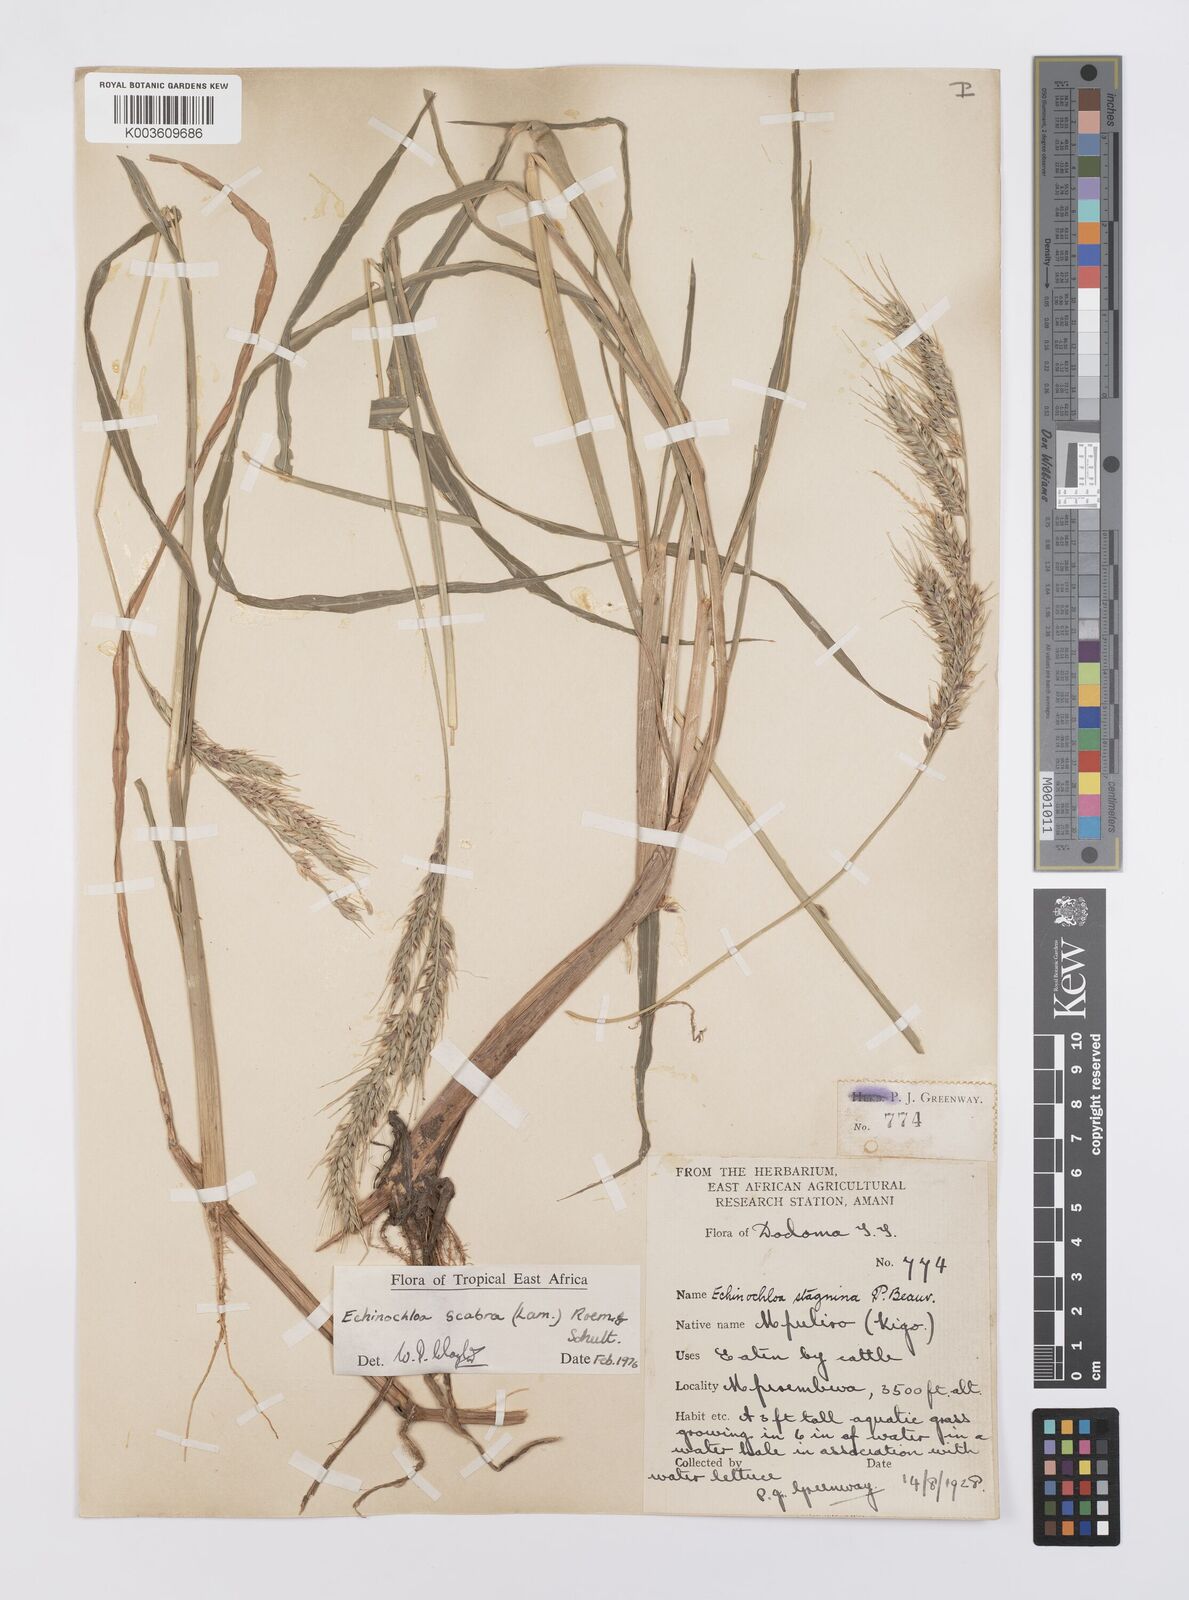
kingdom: Plantae
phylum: Tracheophyta
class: Liliopsida
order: Poales
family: Poaceae
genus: Echinochloa
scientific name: Echinochloa stagnina
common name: Burgu grass
